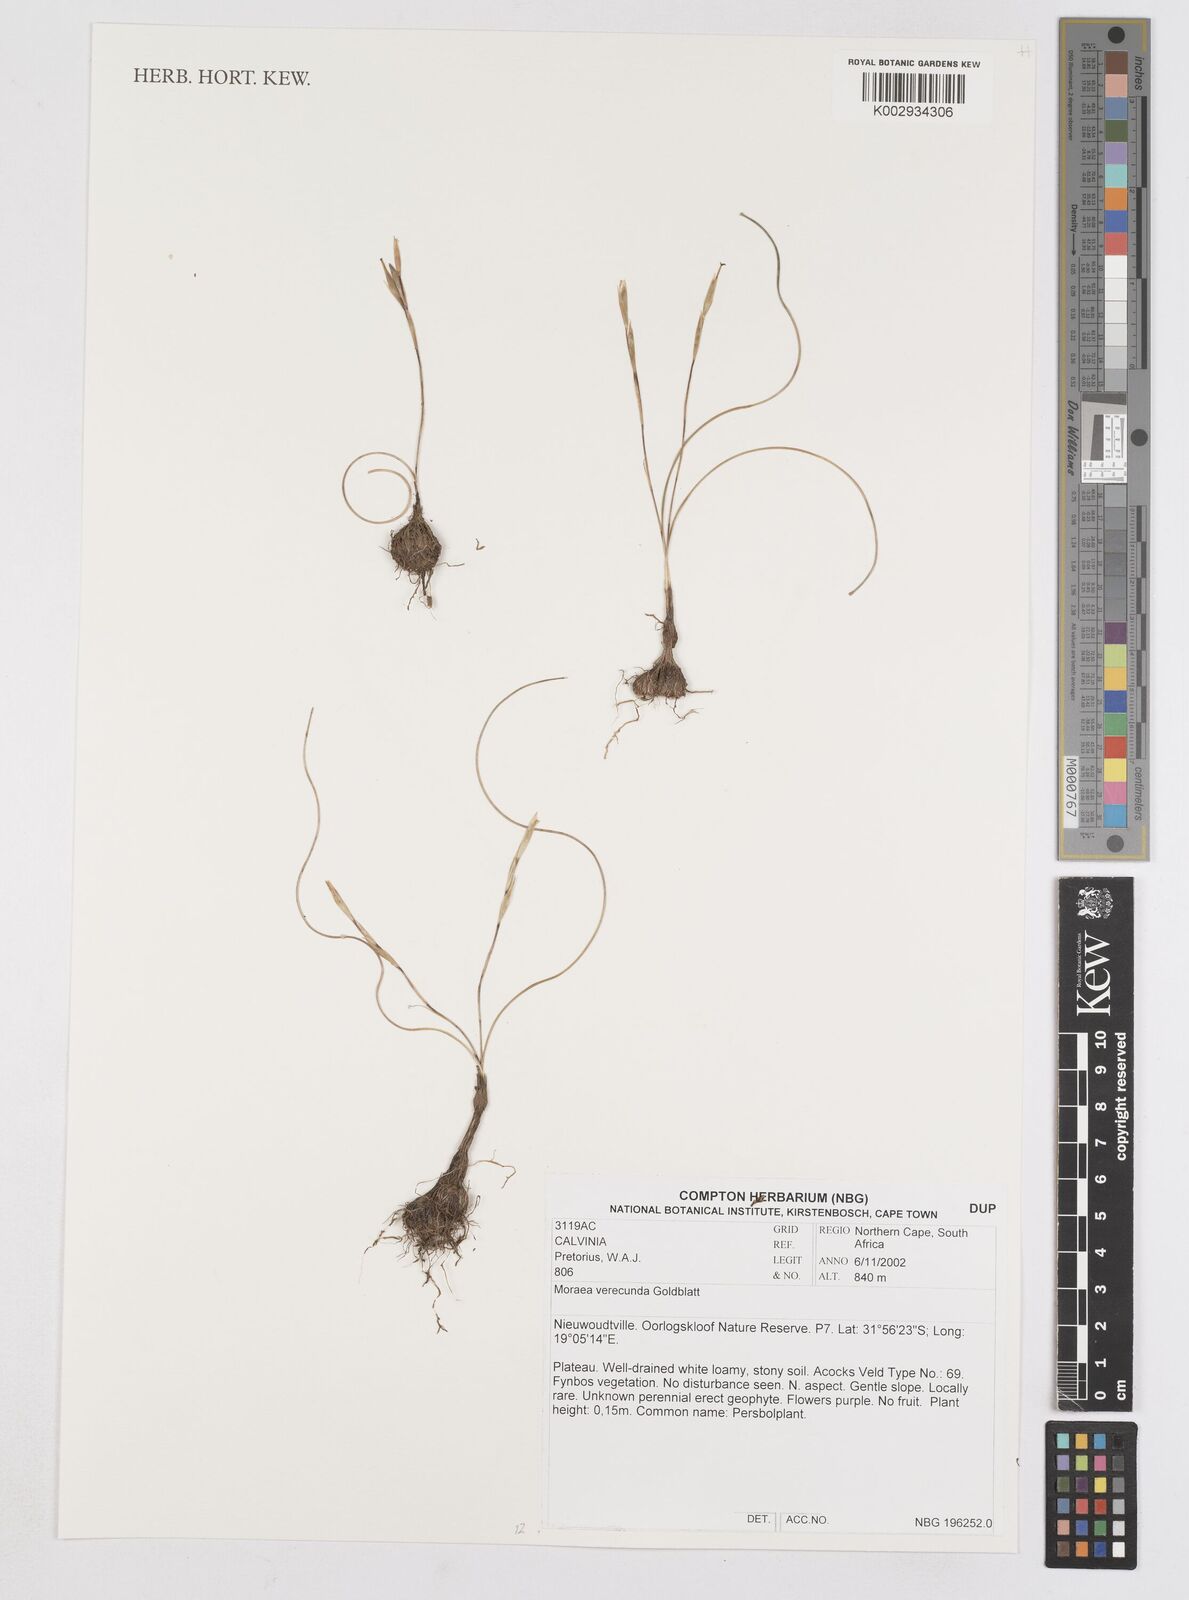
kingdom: Plantae
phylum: Tracheophyta
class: Liliopsida
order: Asparagales
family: Iridaceae
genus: Moraea
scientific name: Moraea verecunda
